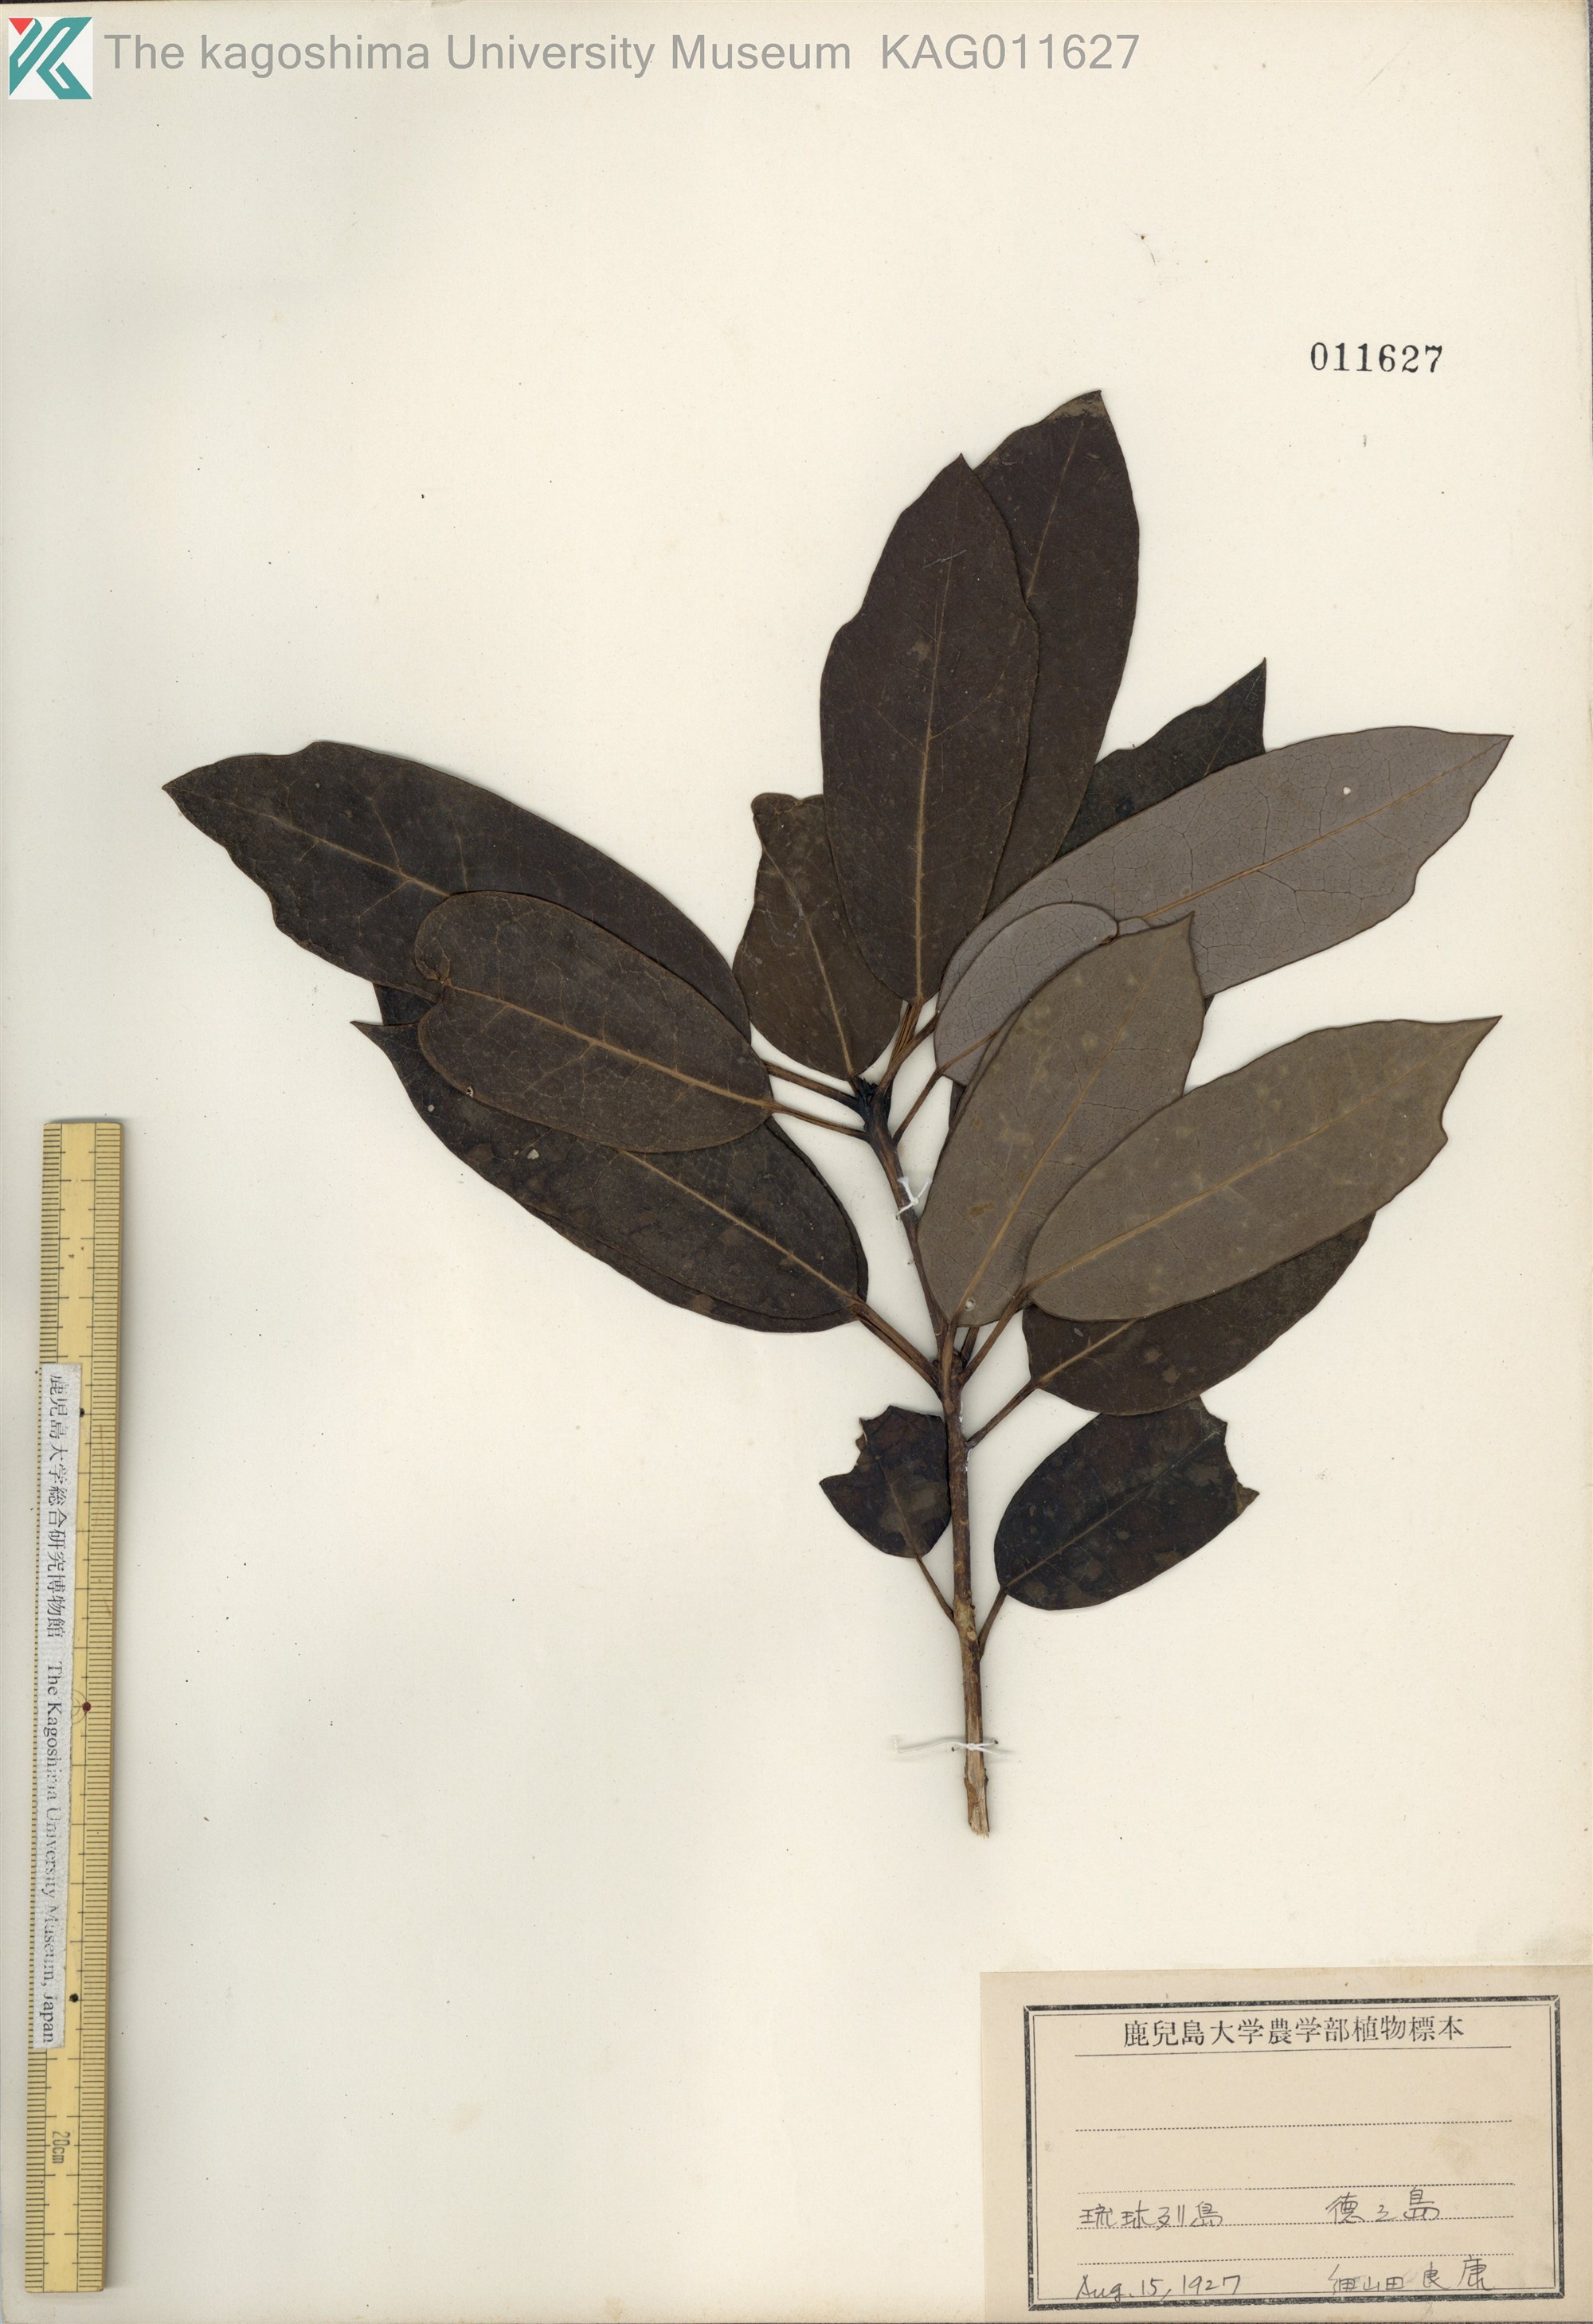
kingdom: Plantae
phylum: Tracheophyta
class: Magnoliopsida
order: Saxifragales
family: Daphniphyllaceae
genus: Daphniphyllum
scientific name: Daphniphyllum teijsmannii
